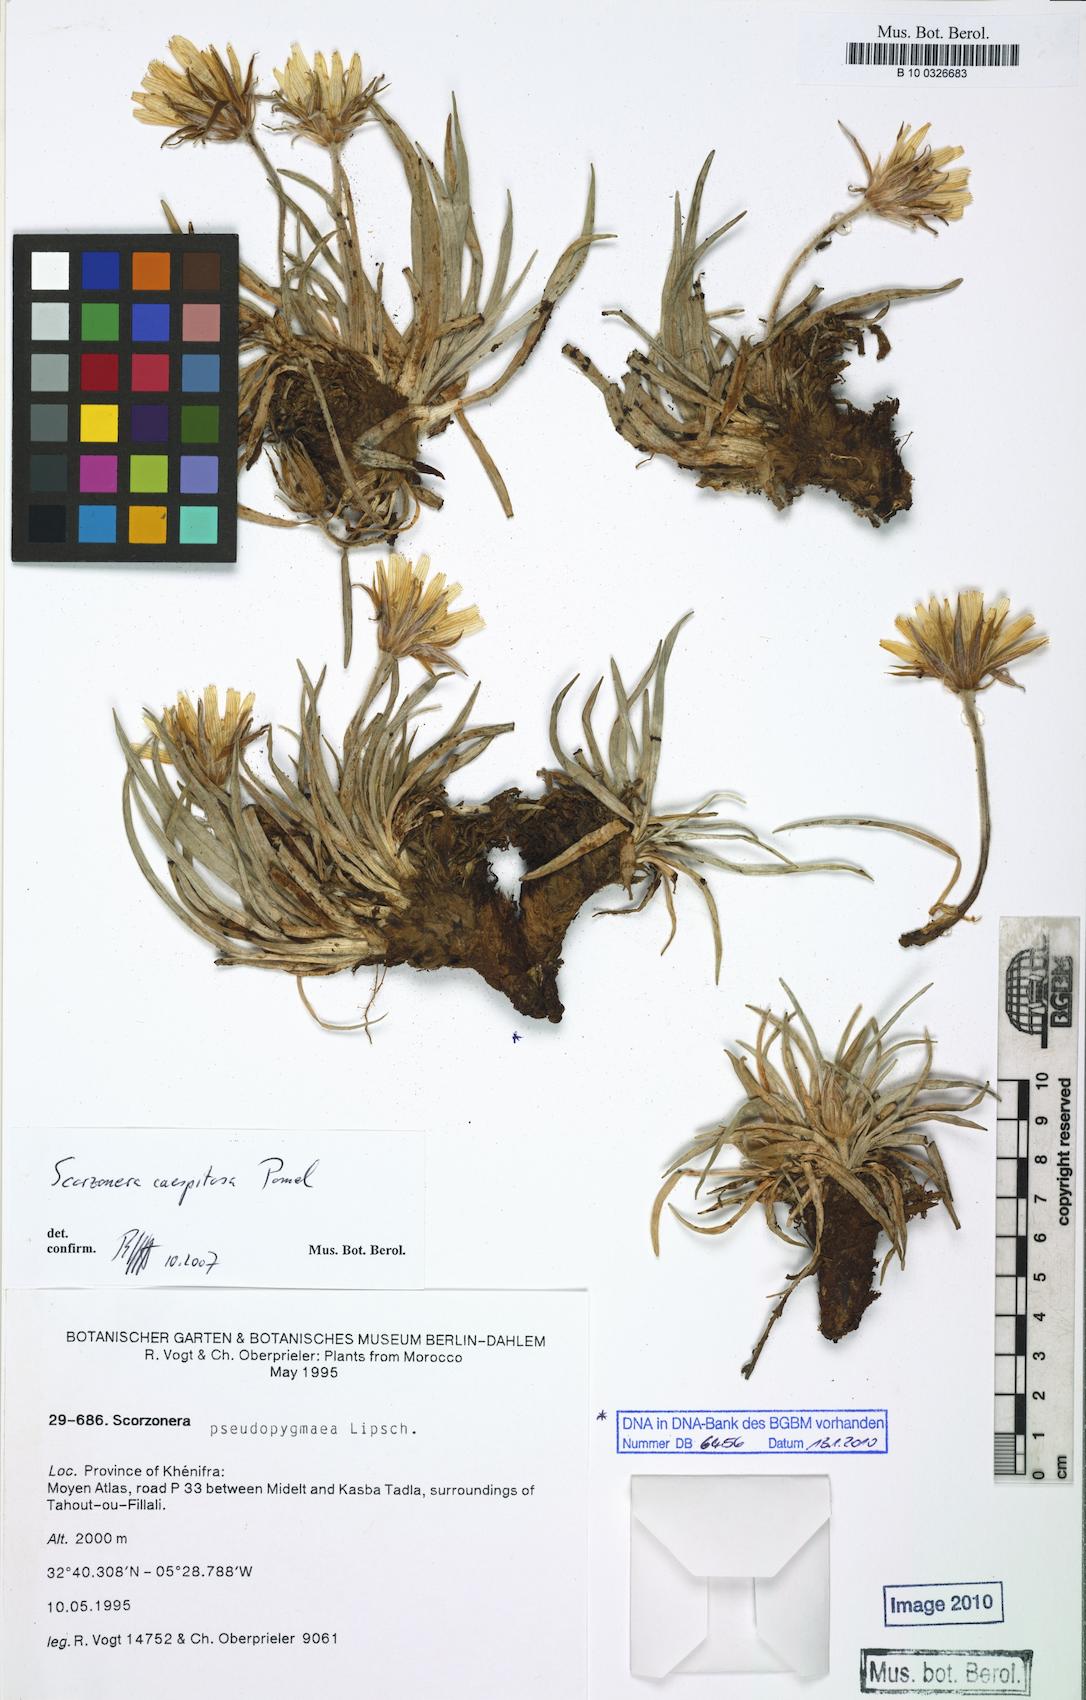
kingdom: Plantae
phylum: Tracheophyta
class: Magnoliopsida
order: Asterales
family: Asteraceae
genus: Gelasia
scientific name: Gelasia caespitosa
